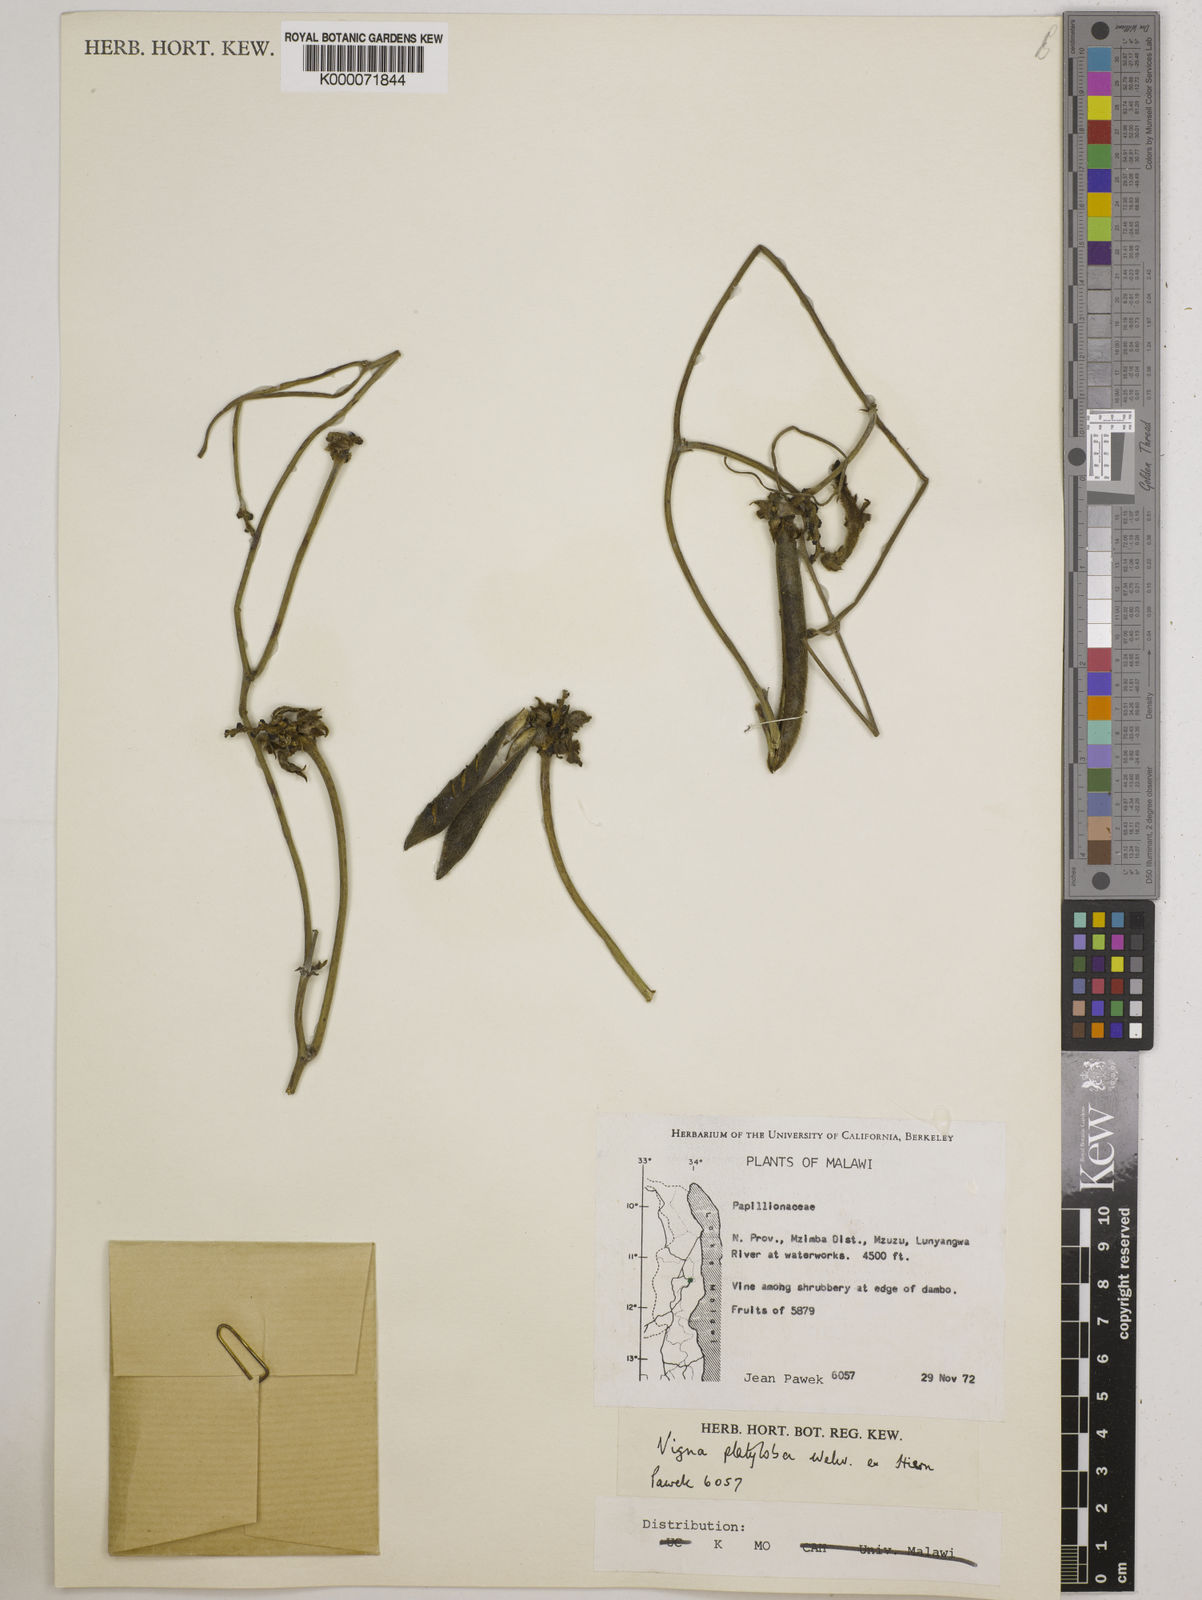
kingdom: Plantae
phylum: Tracheophyta
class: Magnoliopsida
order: Fabales
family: Fabaceae
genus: Vigna
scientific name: Vigna platyloba
